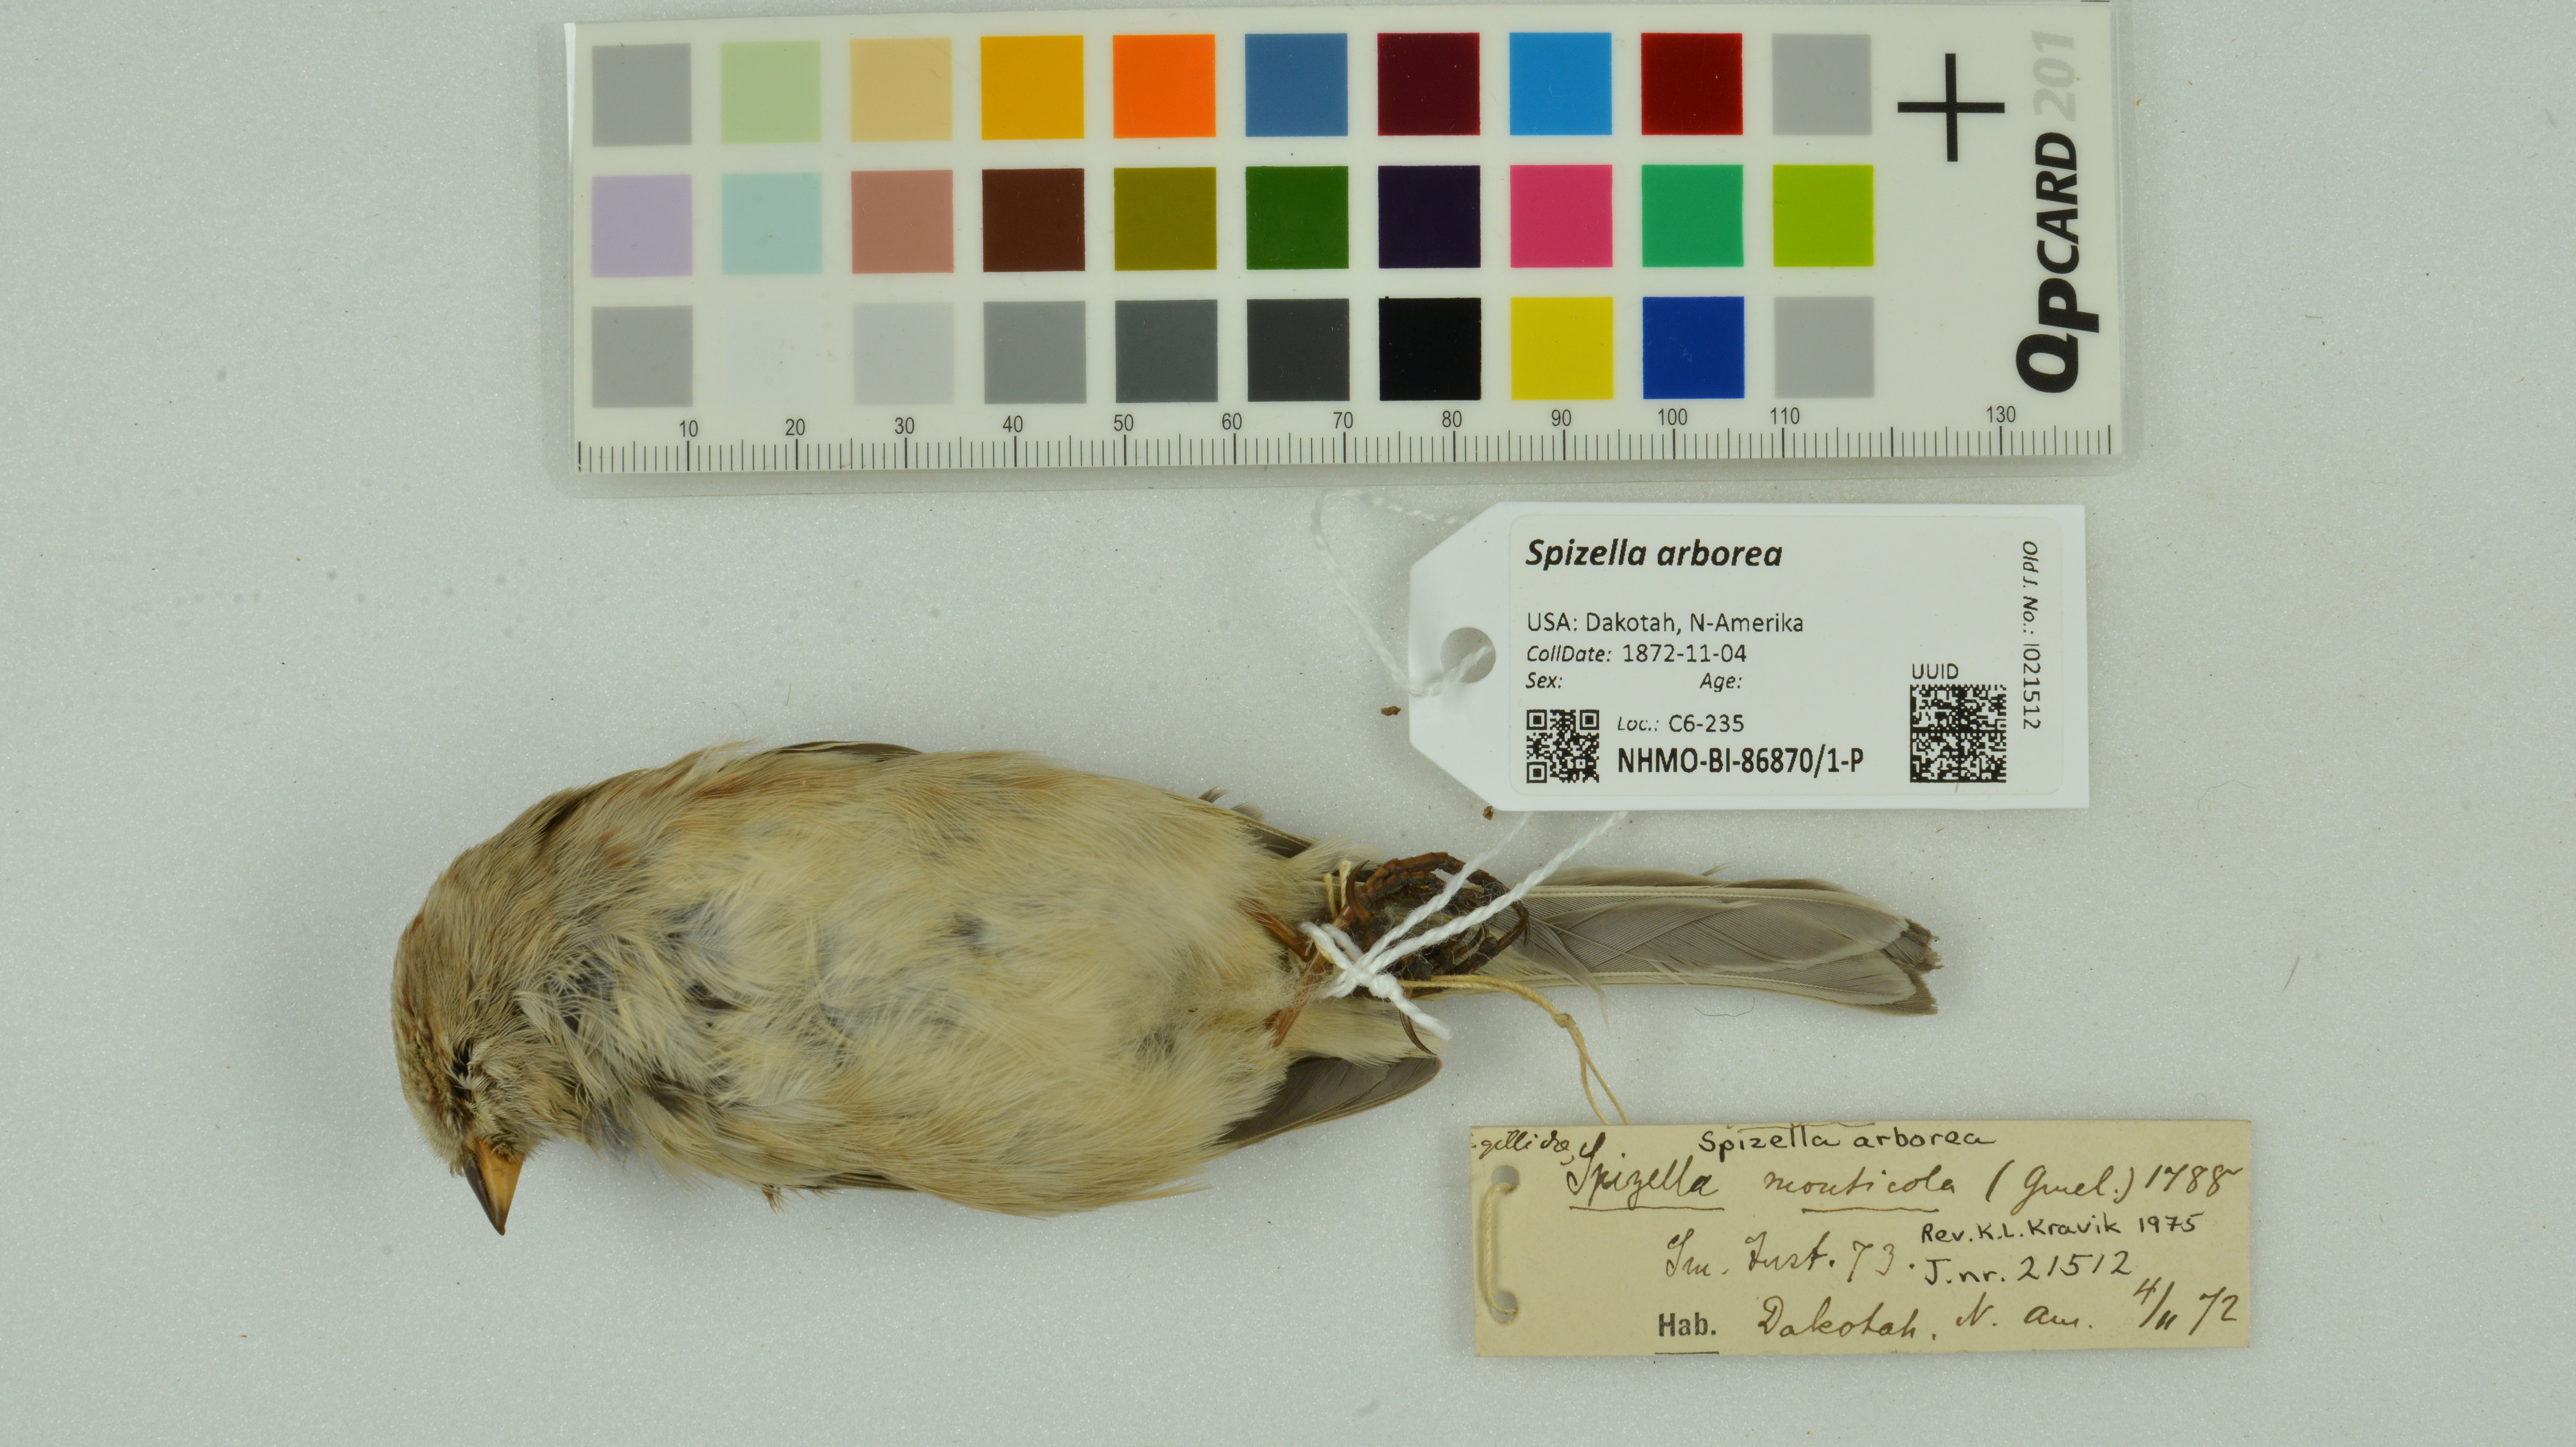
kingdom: Animalia
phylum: Chordata
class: Aves
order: Passeriformes
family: Passerellidae
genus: Spizelloides
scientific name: Spizelloides arborea
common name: American tree sparrow
